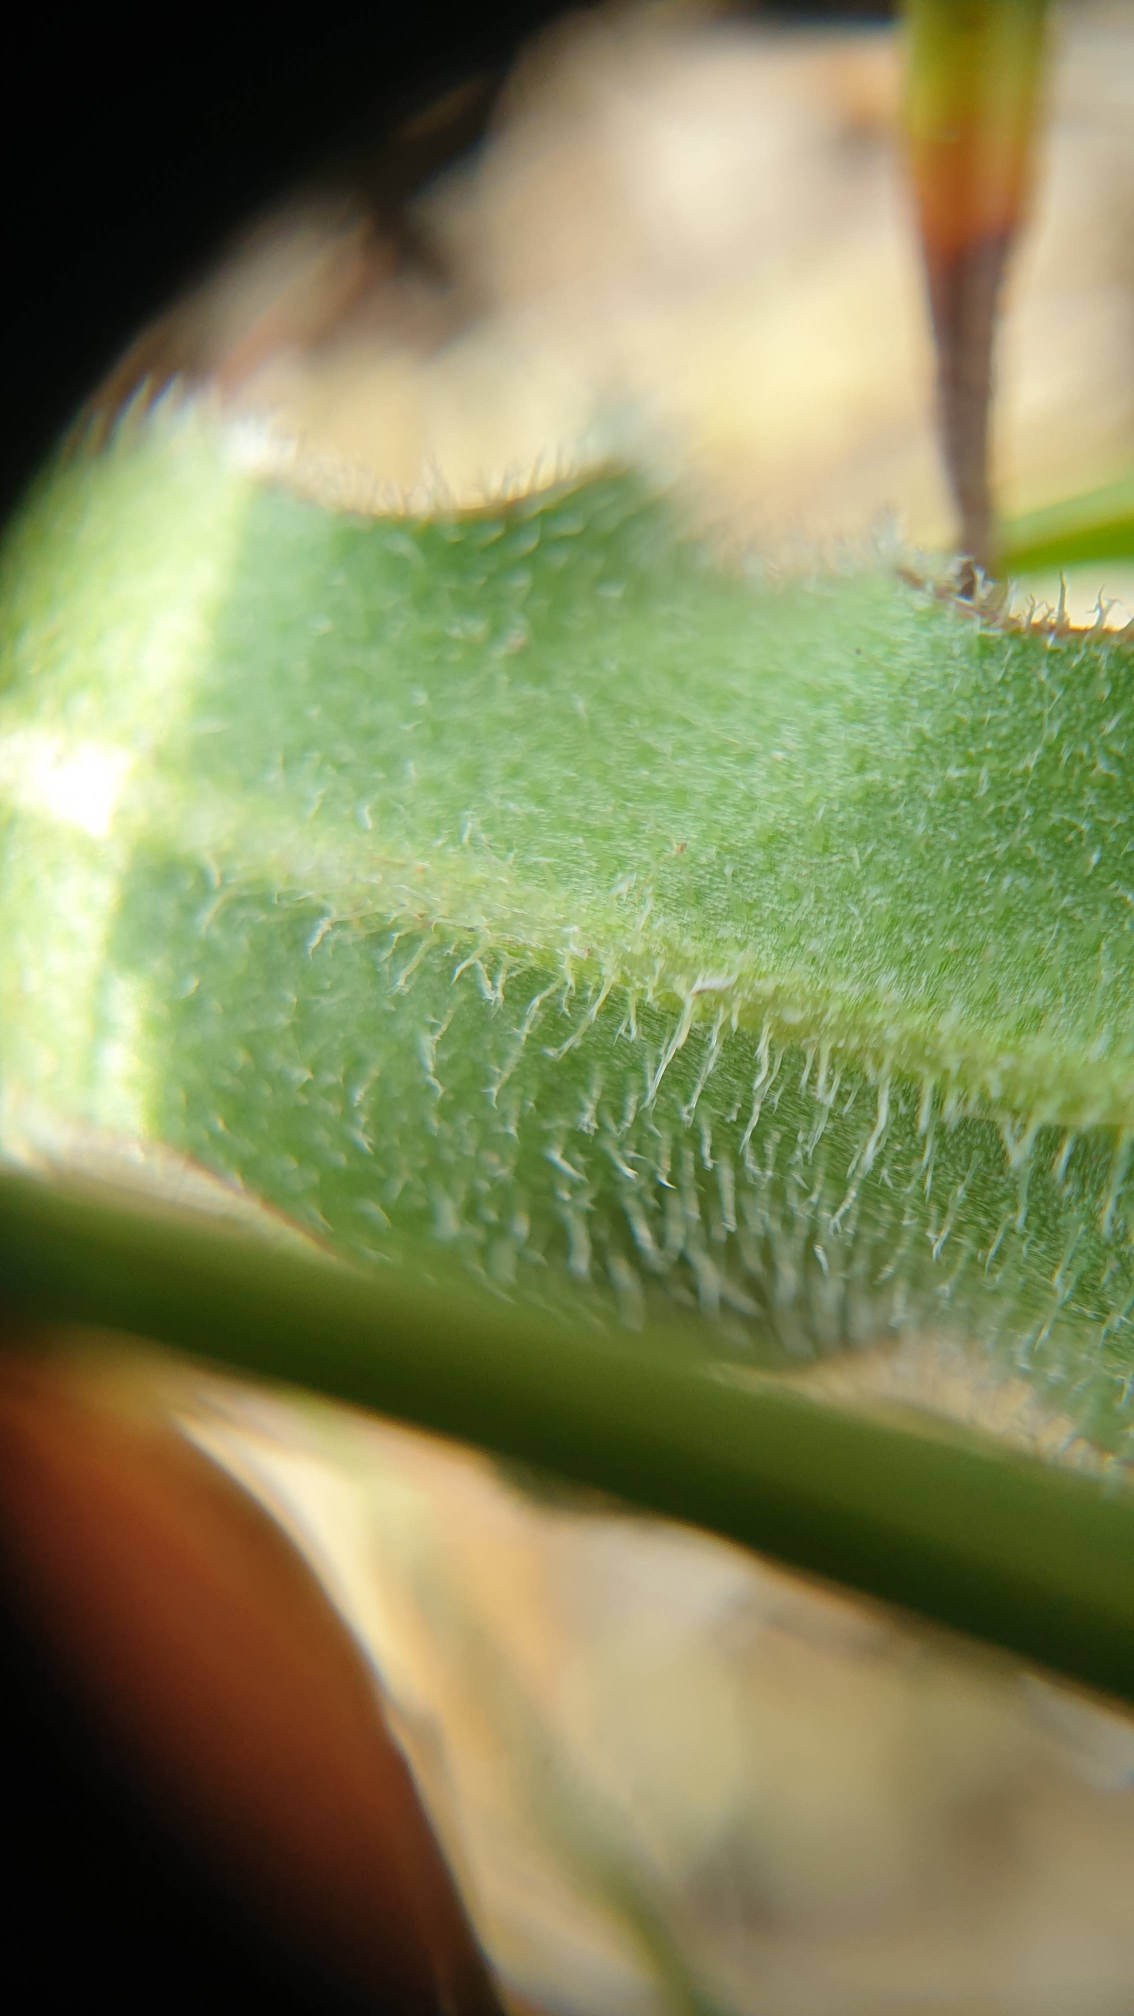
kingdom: Plantae
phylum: Tracheophyta
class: Magnoliopsida
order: Asterales
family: Asteraceae
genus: Leontodon
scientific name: Leontodon hispidus
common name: Stivhåret borst
